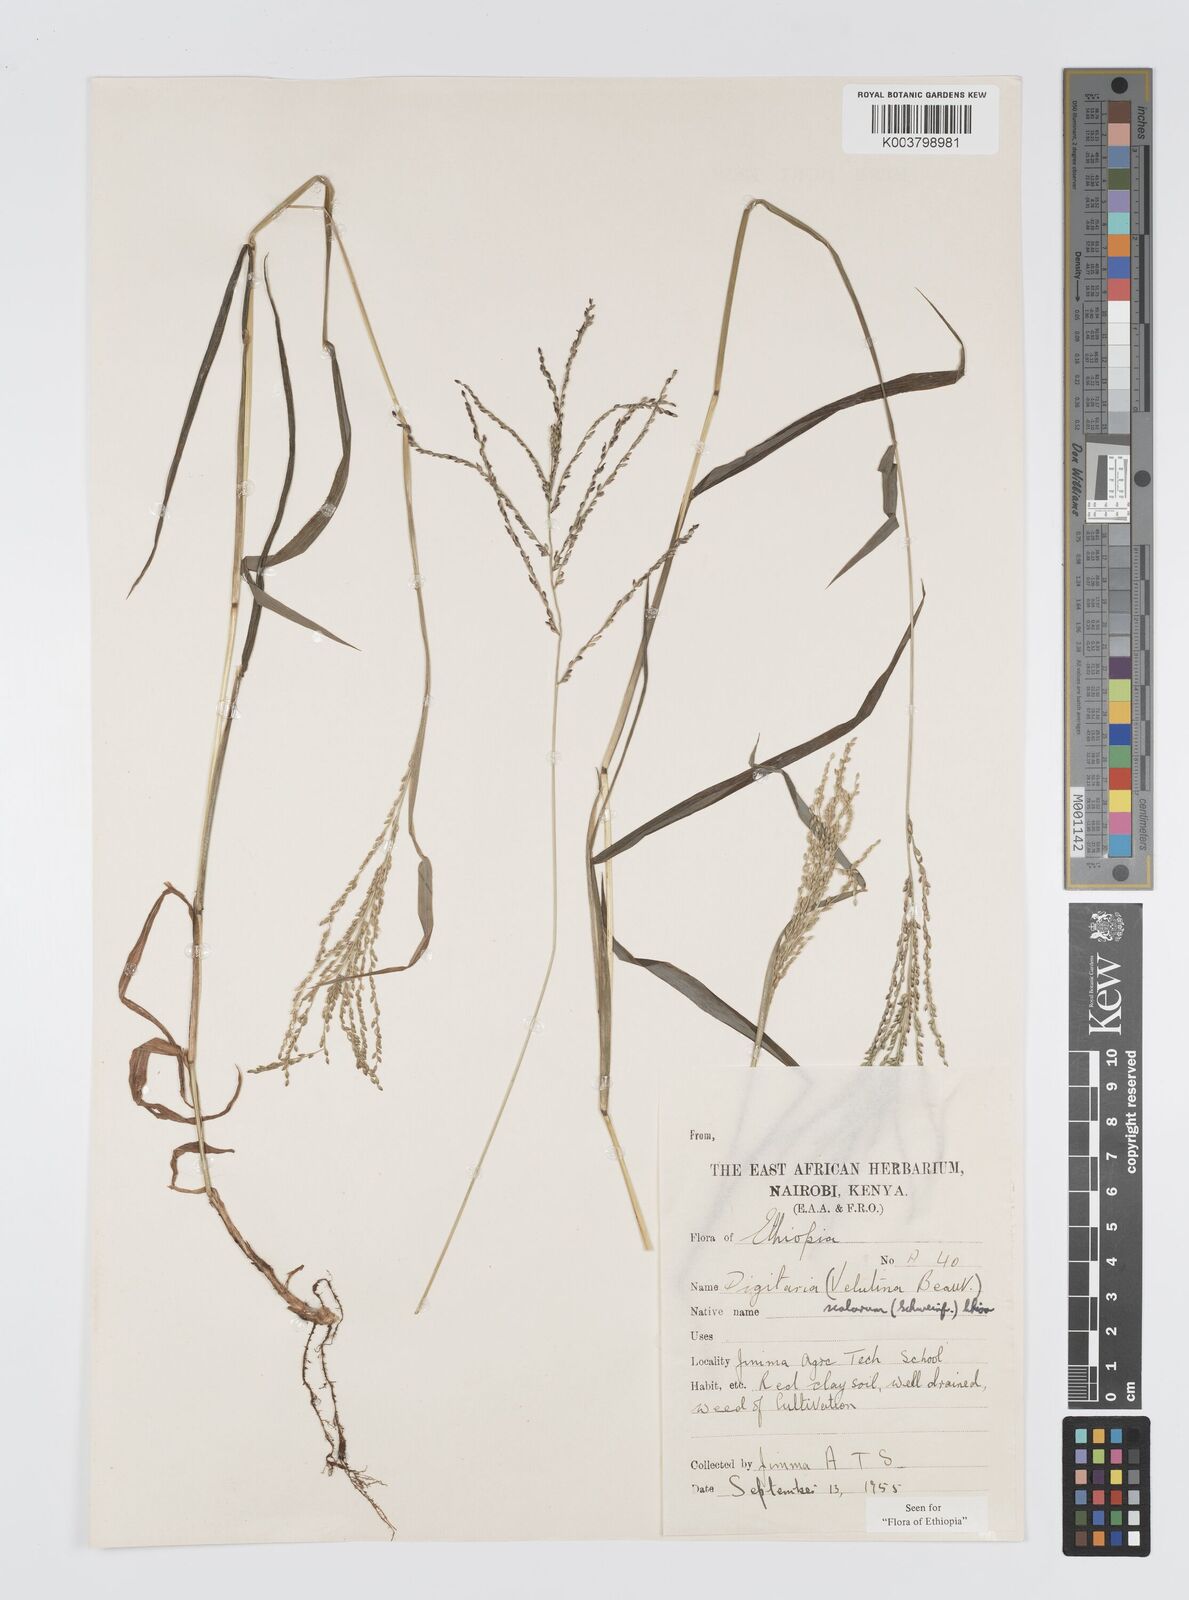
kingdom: Plantae
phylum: Tracheophyta
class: Liliopsida
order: Poales
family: Poaceae
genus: Digitaria
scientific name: Digitaria abyssinica
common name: African couchgrass
